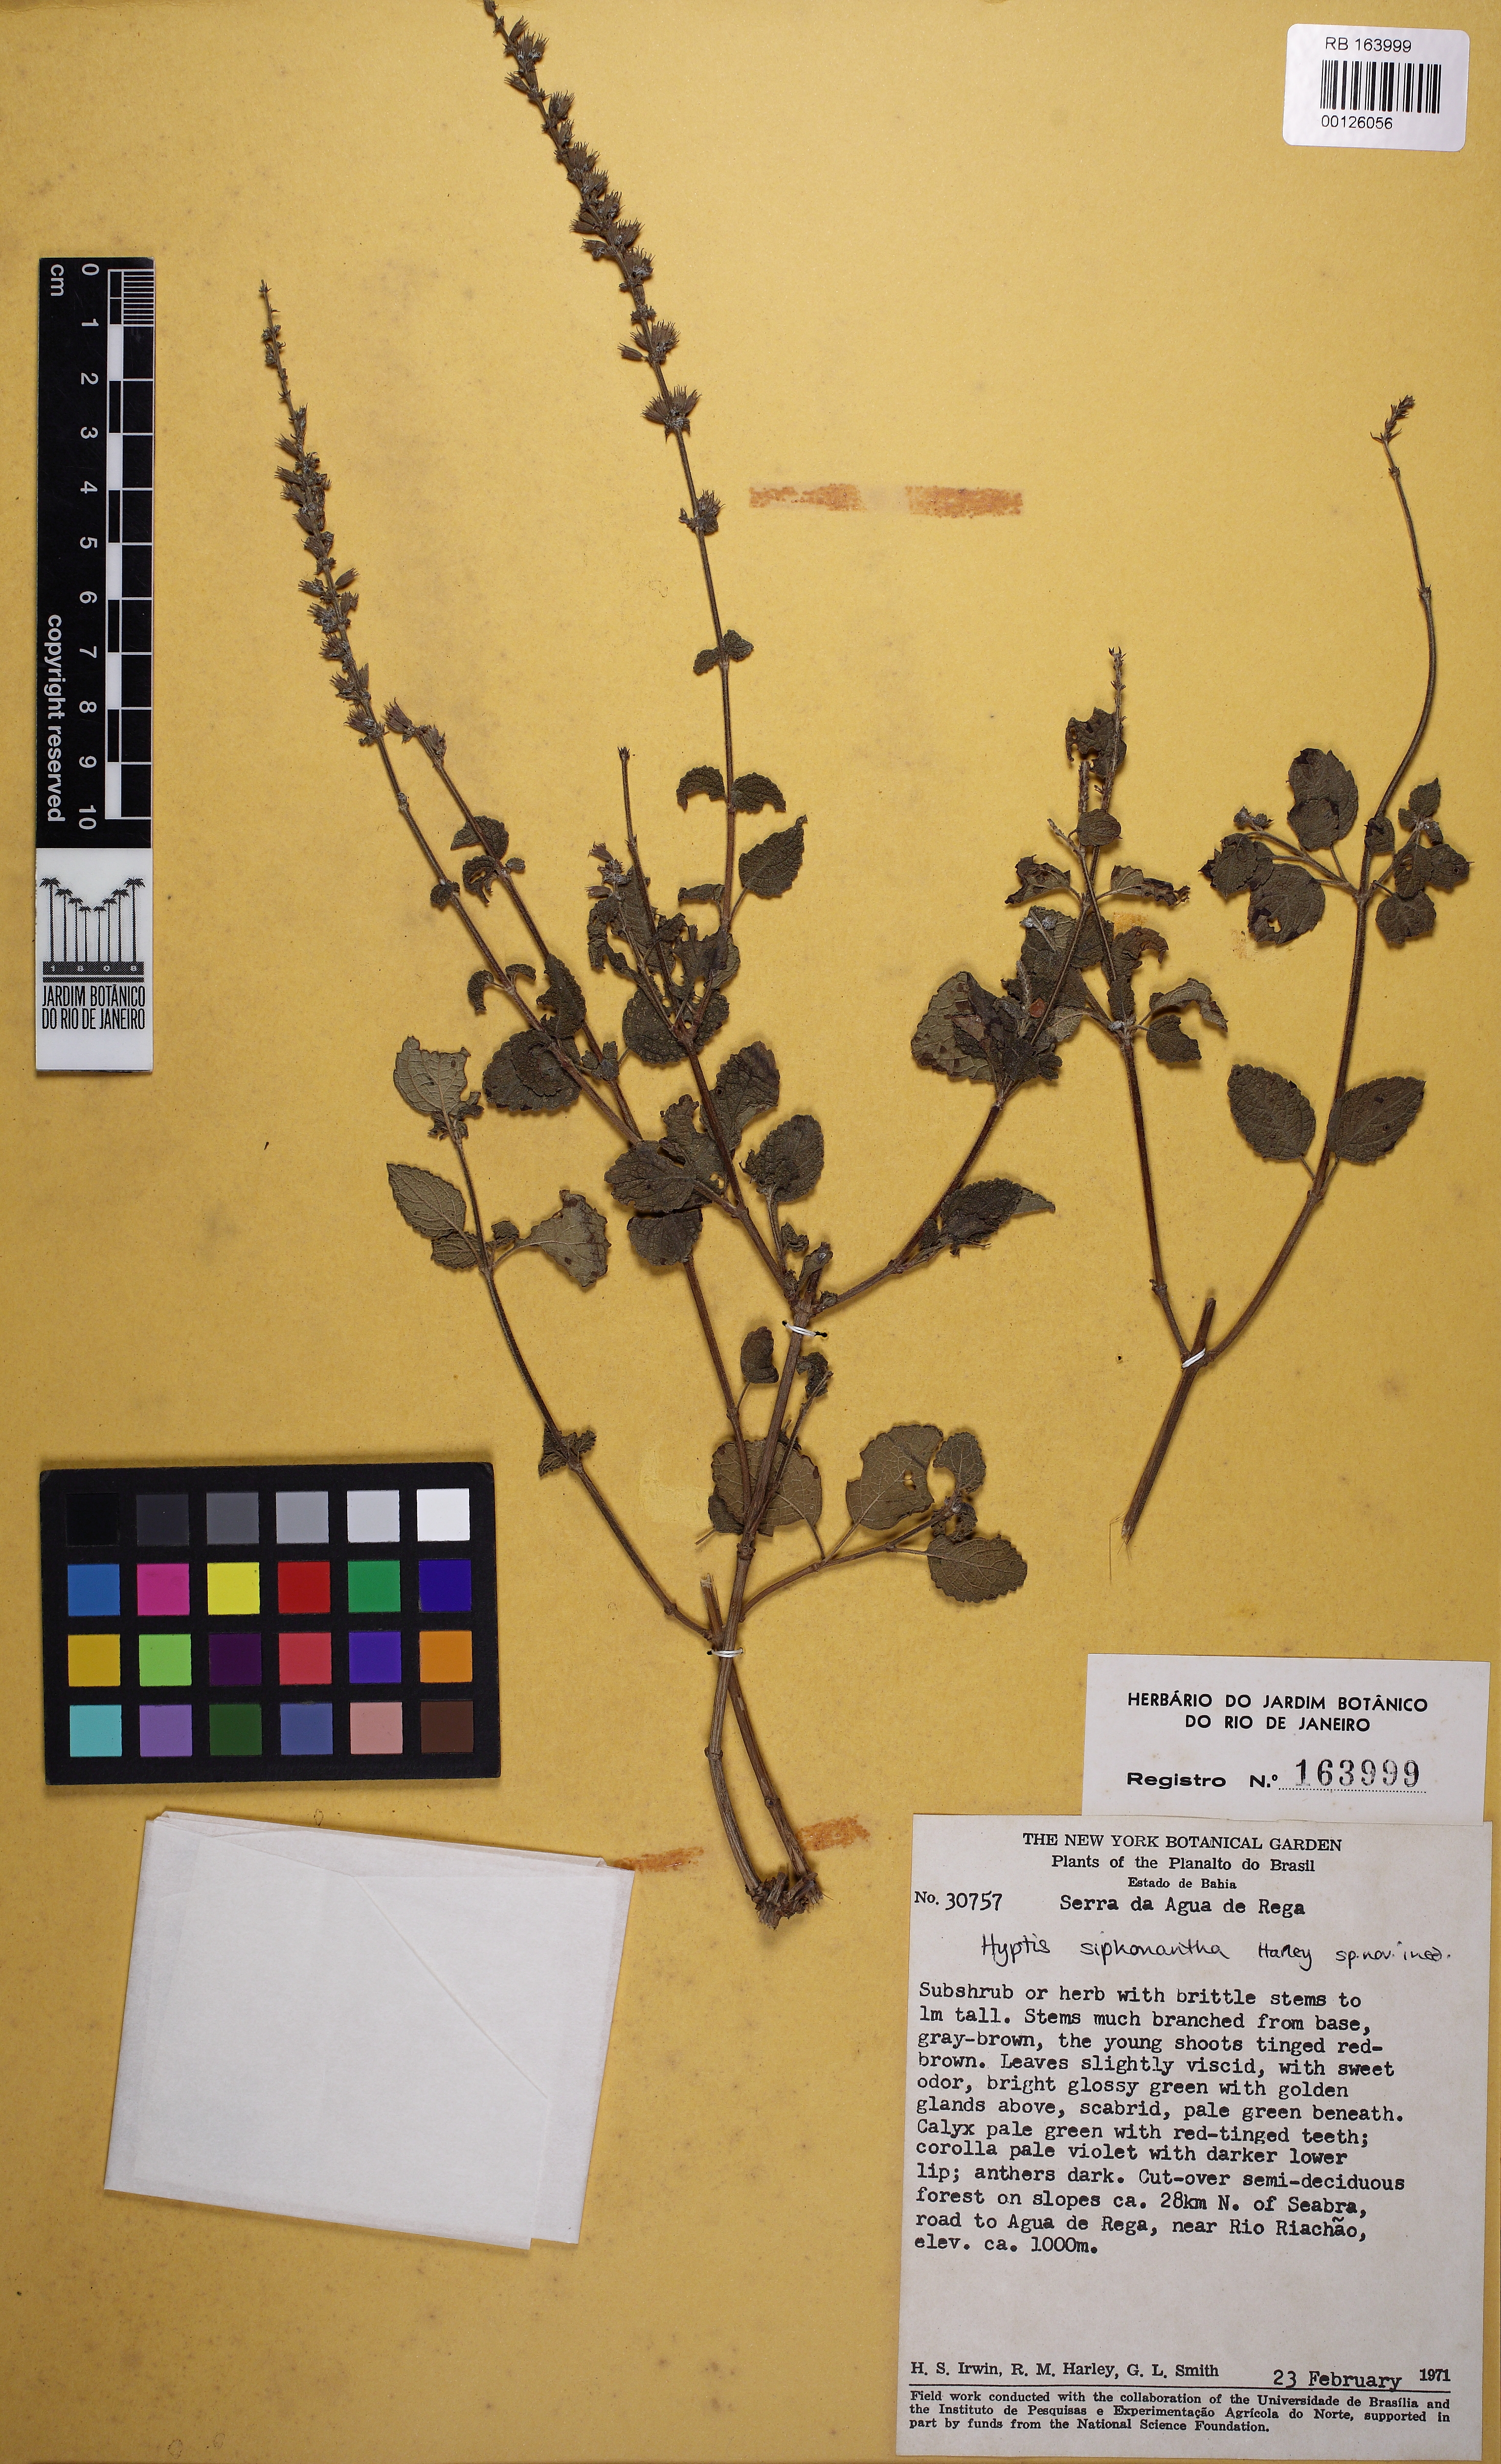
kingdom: Plantae
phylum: Tracheophyta
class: Magnoliopsida
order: Lamiales
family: Lamiaceae
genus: Leptohyptis
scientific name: Leptohyptis siphonantha
